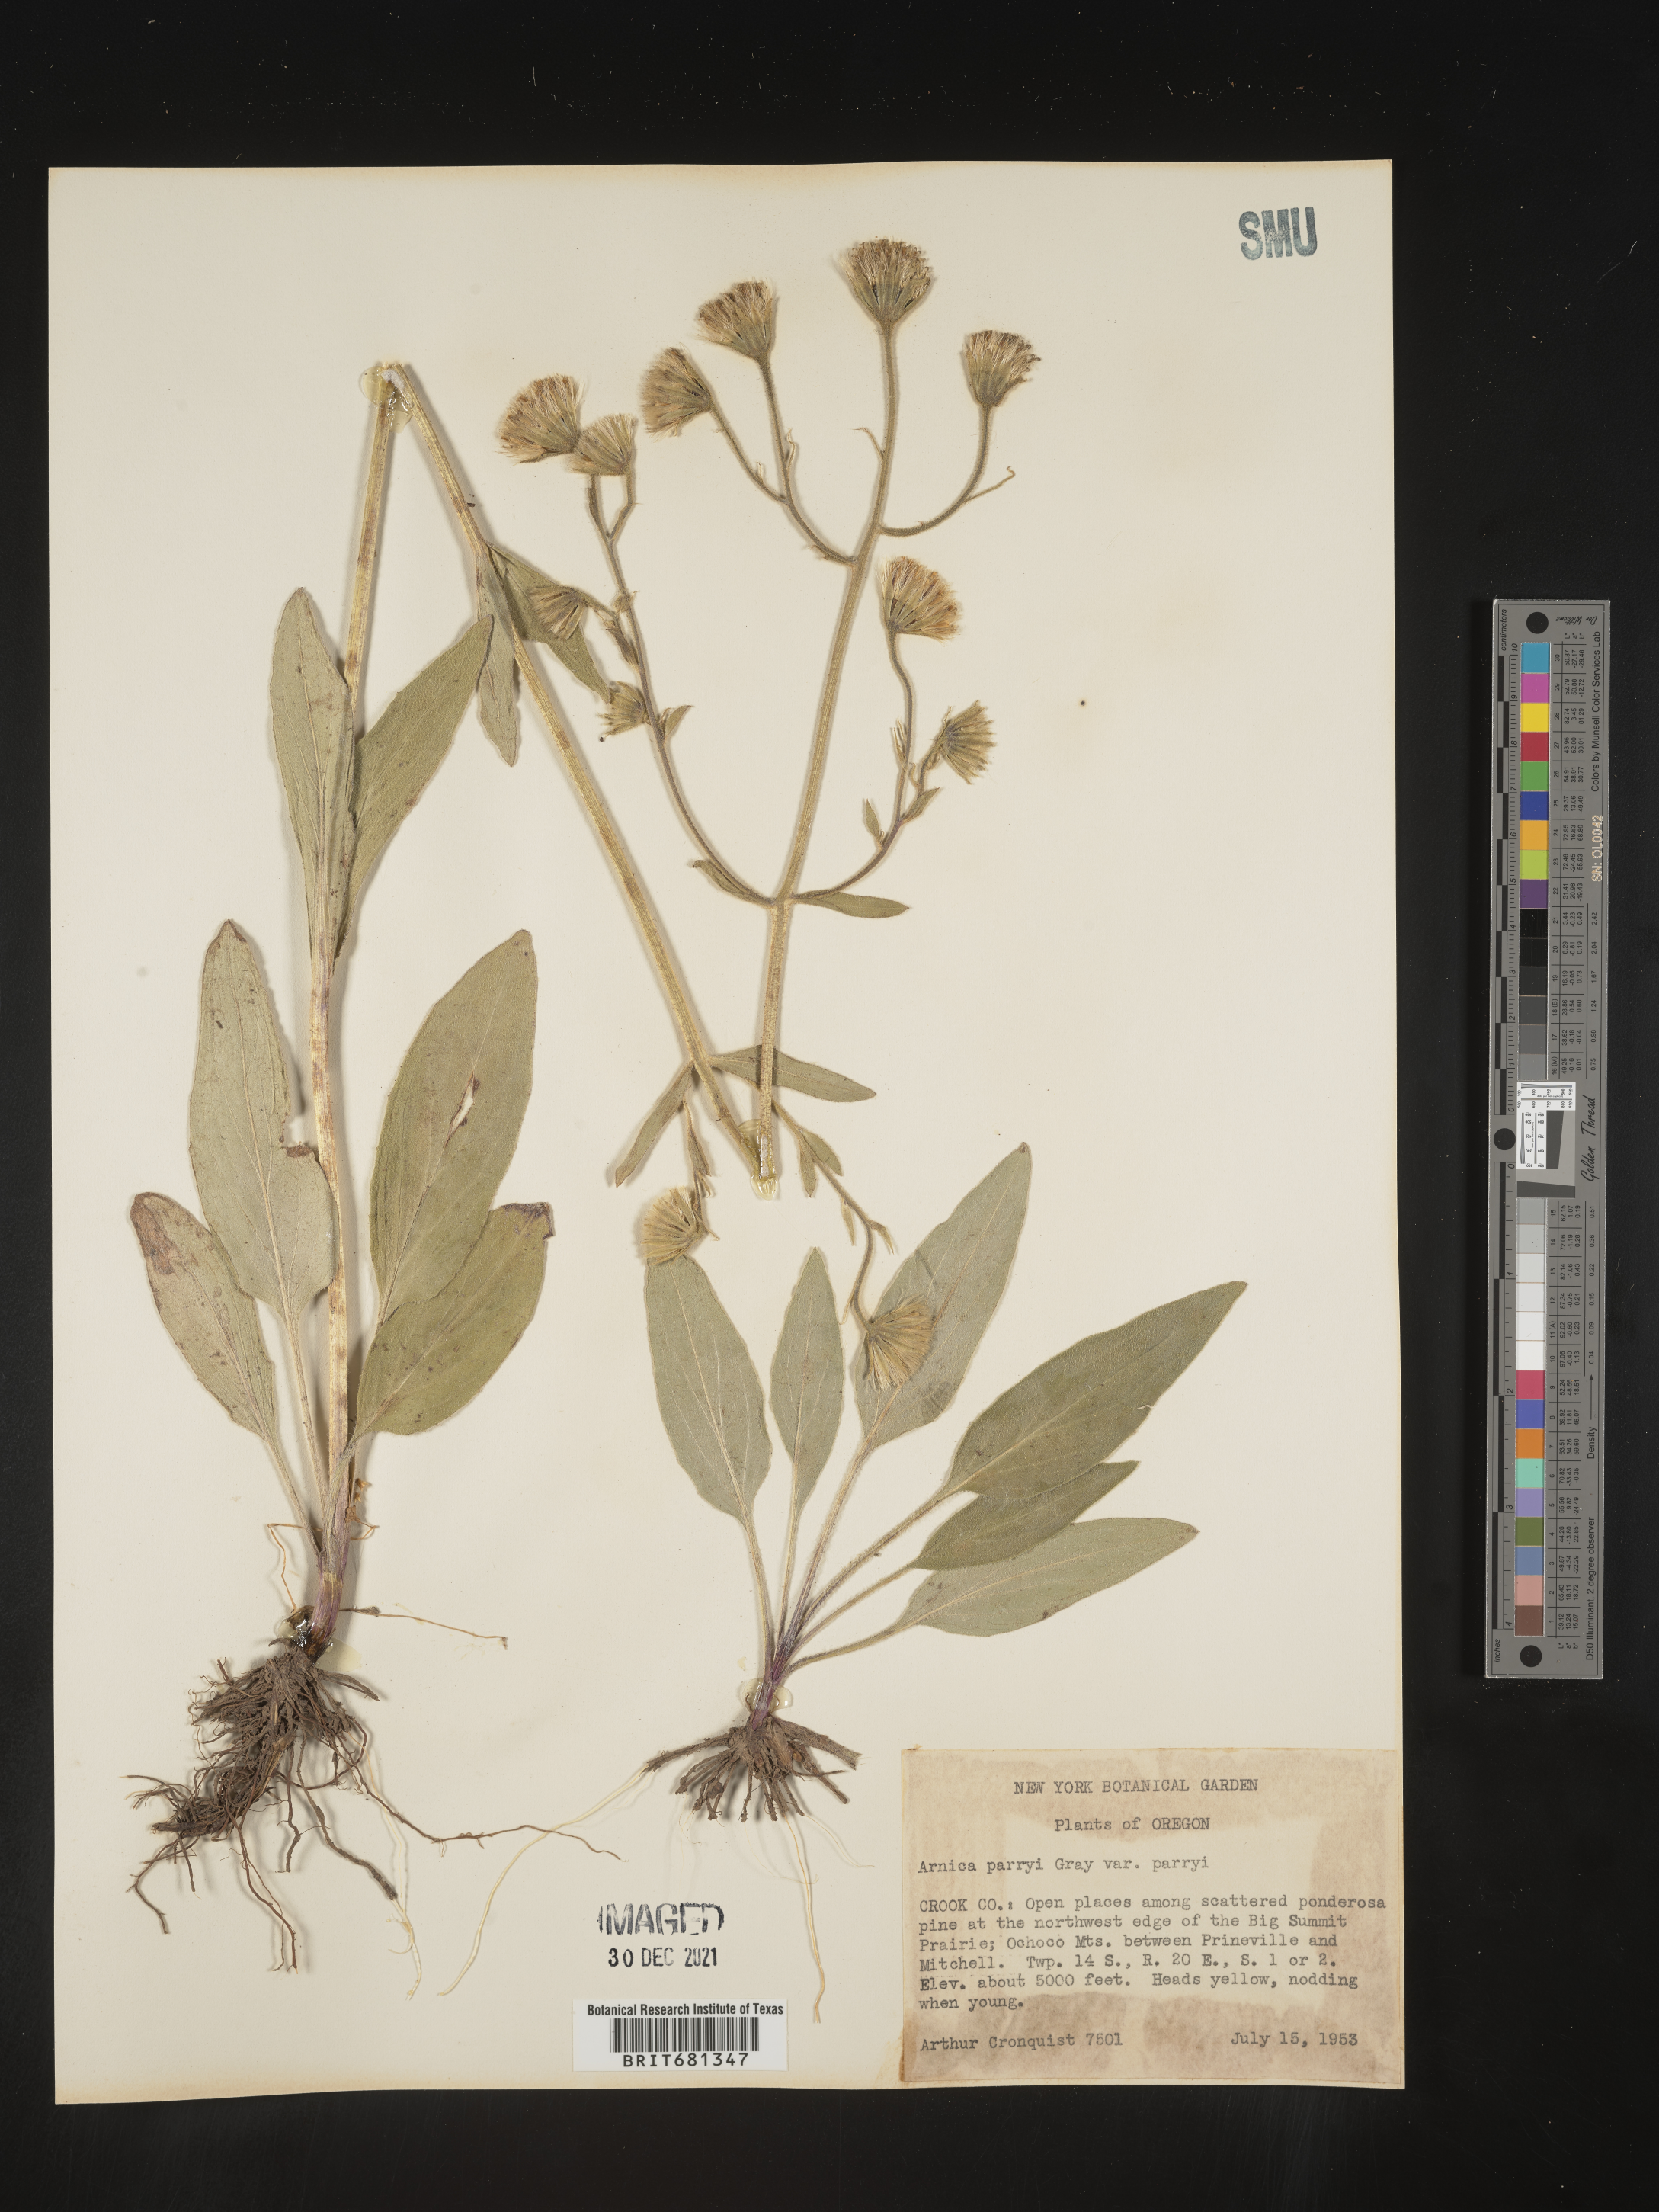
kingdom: Plantae
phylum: Tracheophyta
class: Magnoliopsida
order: Asterales
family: Asteraceae
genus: Arnica
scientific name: Arnica parryi
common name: Parry's arnica
